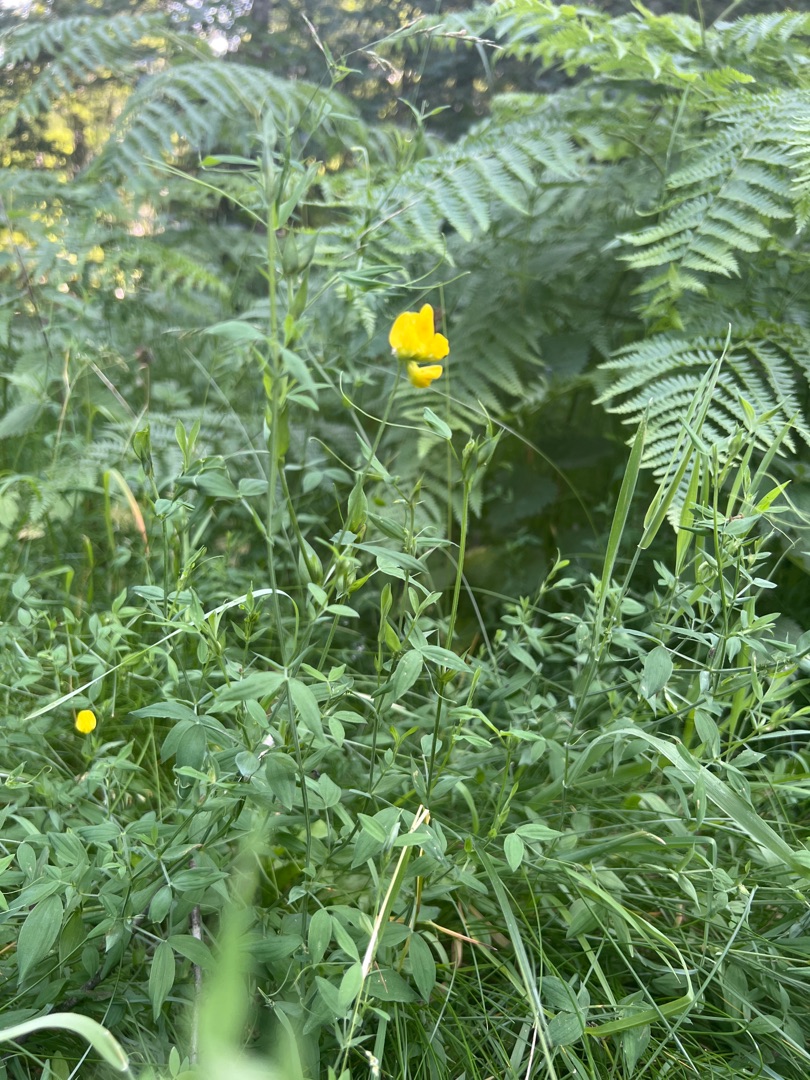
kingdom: Plantae
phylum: Tracheophyta
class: Magnoliopsida
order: Fabales
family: Fabaceae
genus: Lathyrus
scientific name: Lathyrus pratensis
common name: Gul fladbælg
